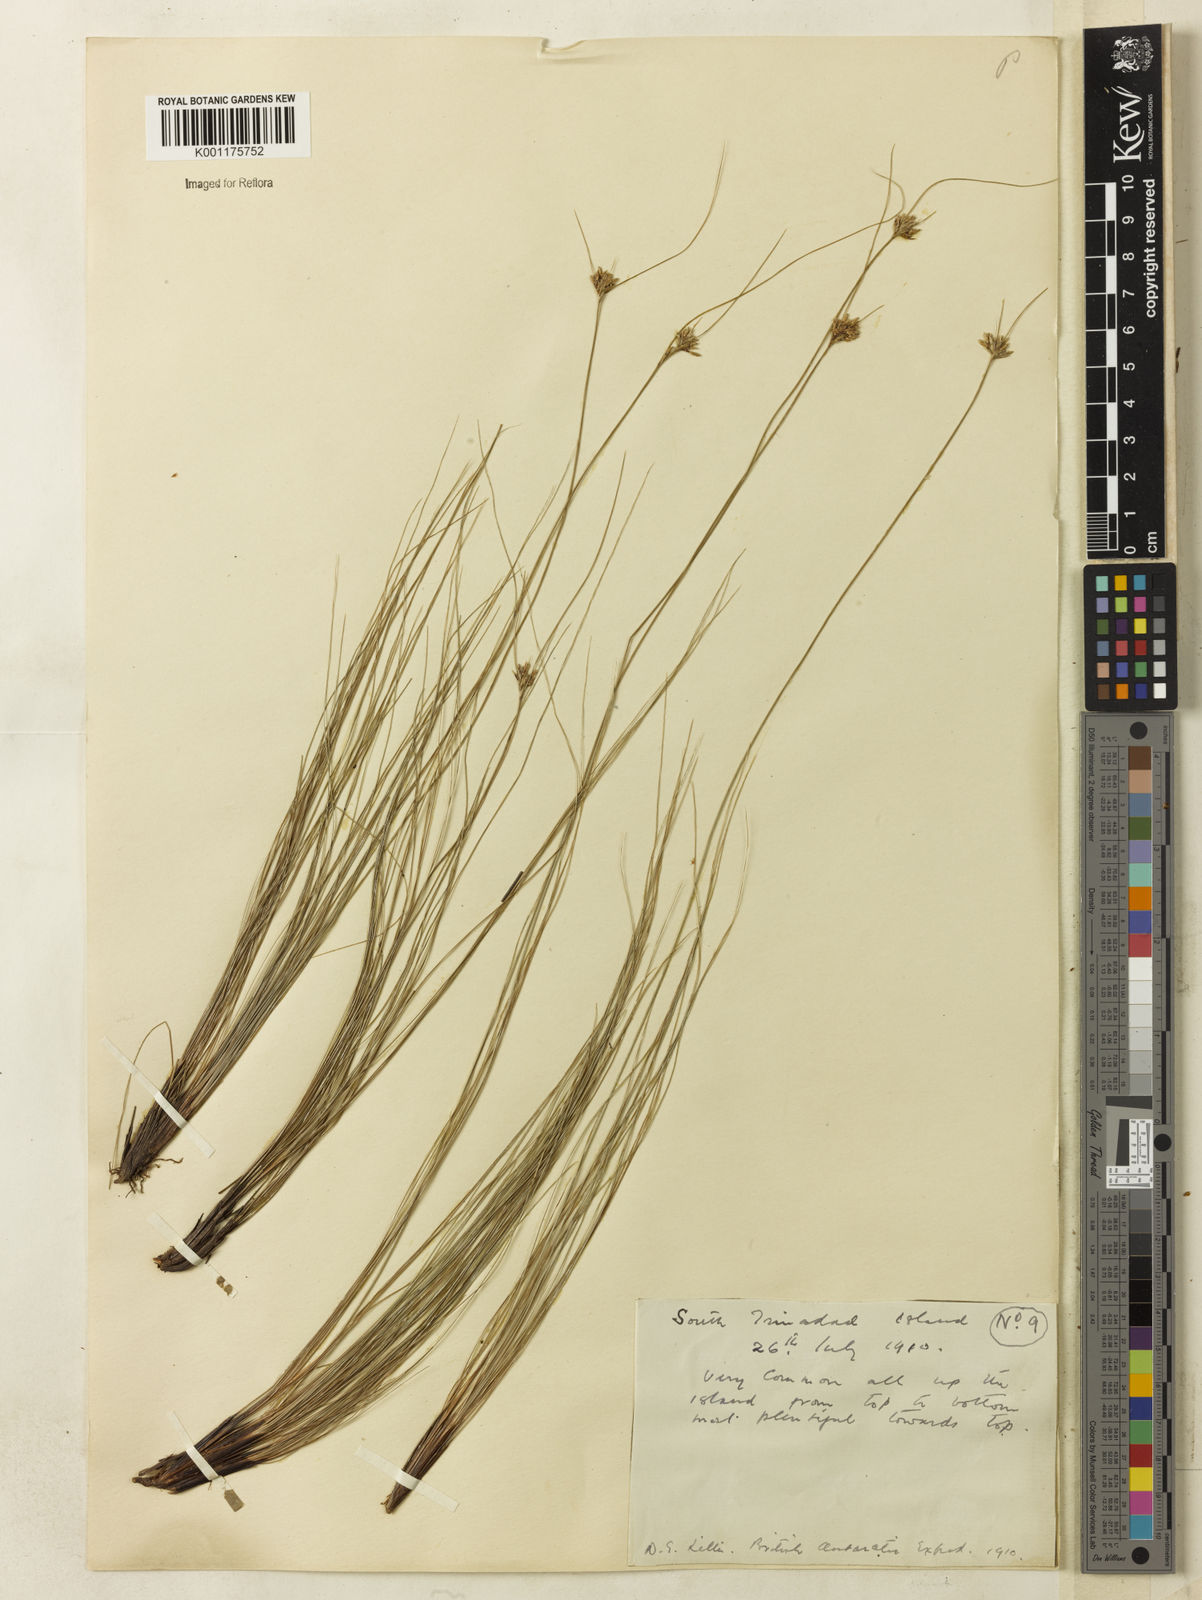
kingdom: Plantae
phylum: Tracheophyta
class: Liliopsida
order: Poales
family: Cyperaceae
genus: Bulbostylis
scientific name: Bulbostylis nesiotis
